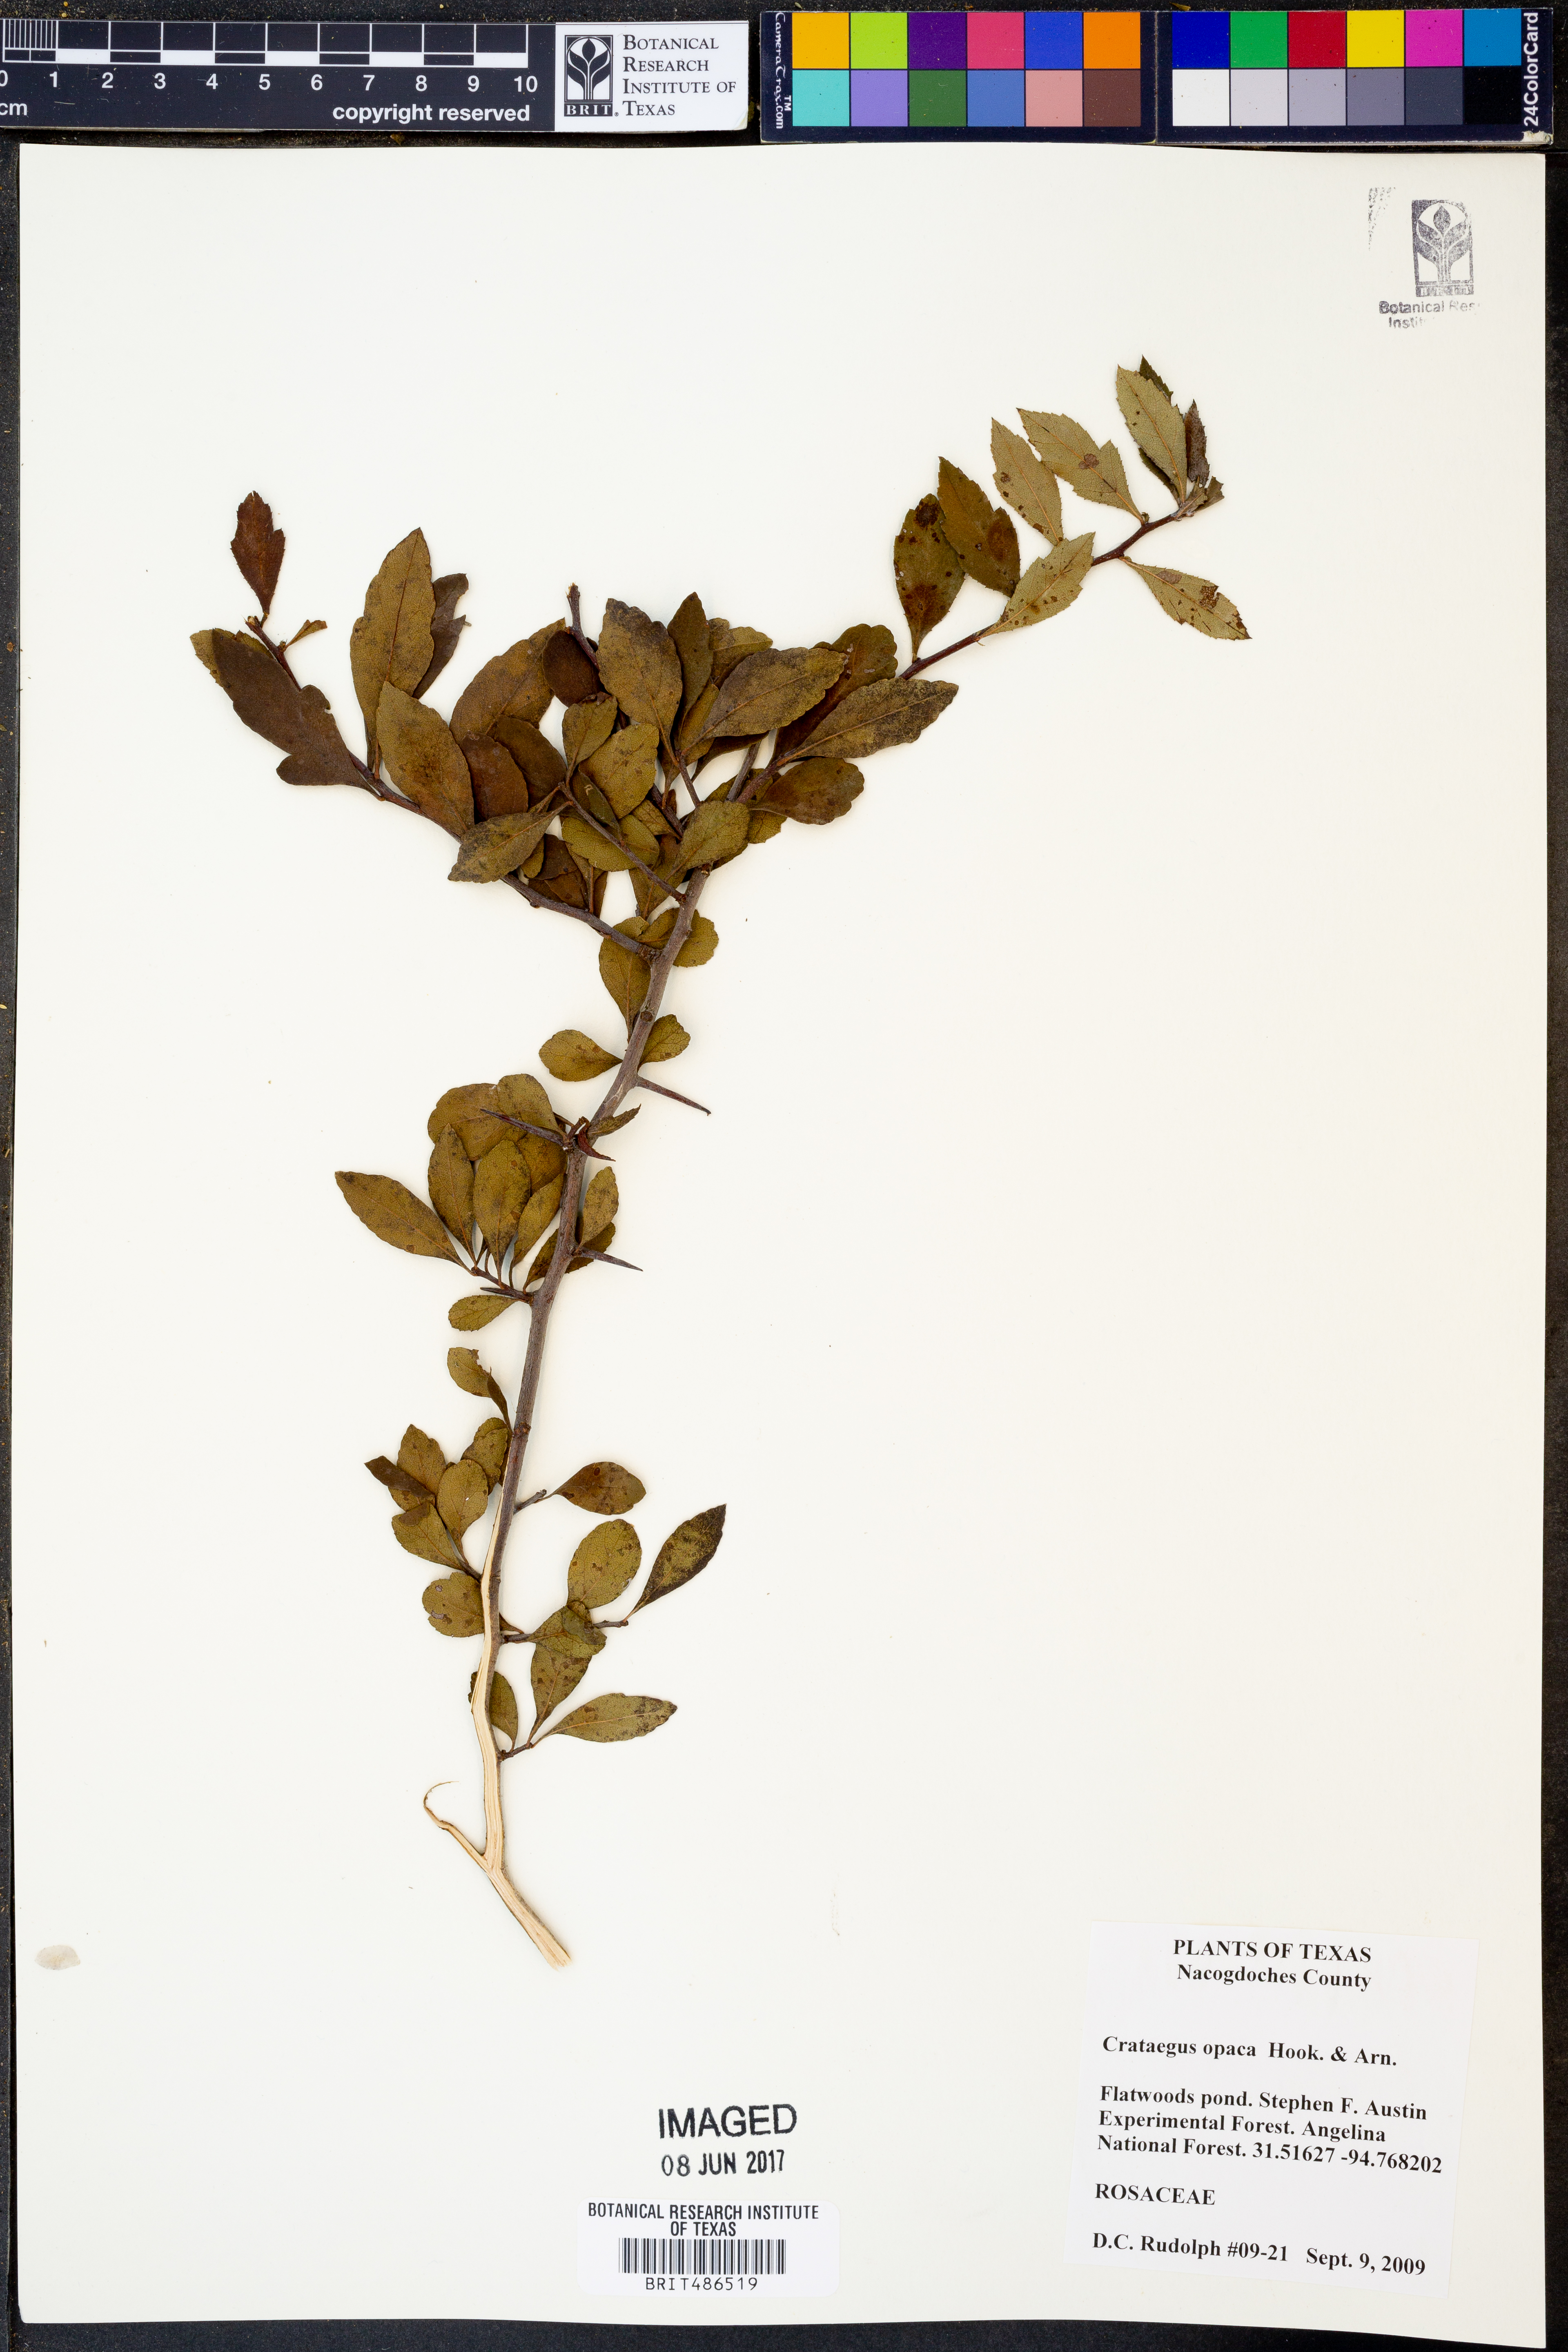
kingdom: Plantae
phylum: Tracheophyta
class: Magnoliopsida
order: Rosales
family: Rosaceae
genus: Crataegus
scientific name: Crataegus opaca
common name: Apple haw
